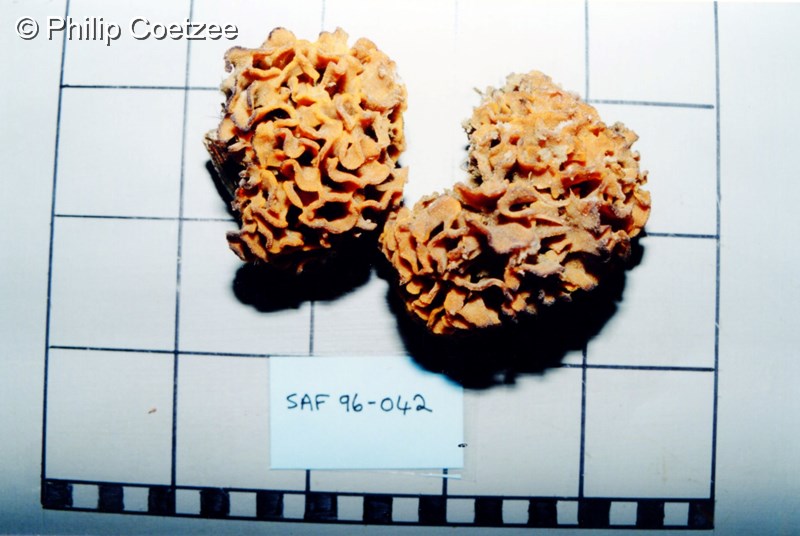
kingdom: Animalia
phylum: Bryozoa
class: Gymnolaemata
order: Cheilostomatida
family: Chaperiidae
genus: Chaperiopsis
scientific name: Chaperiopsis multifida
